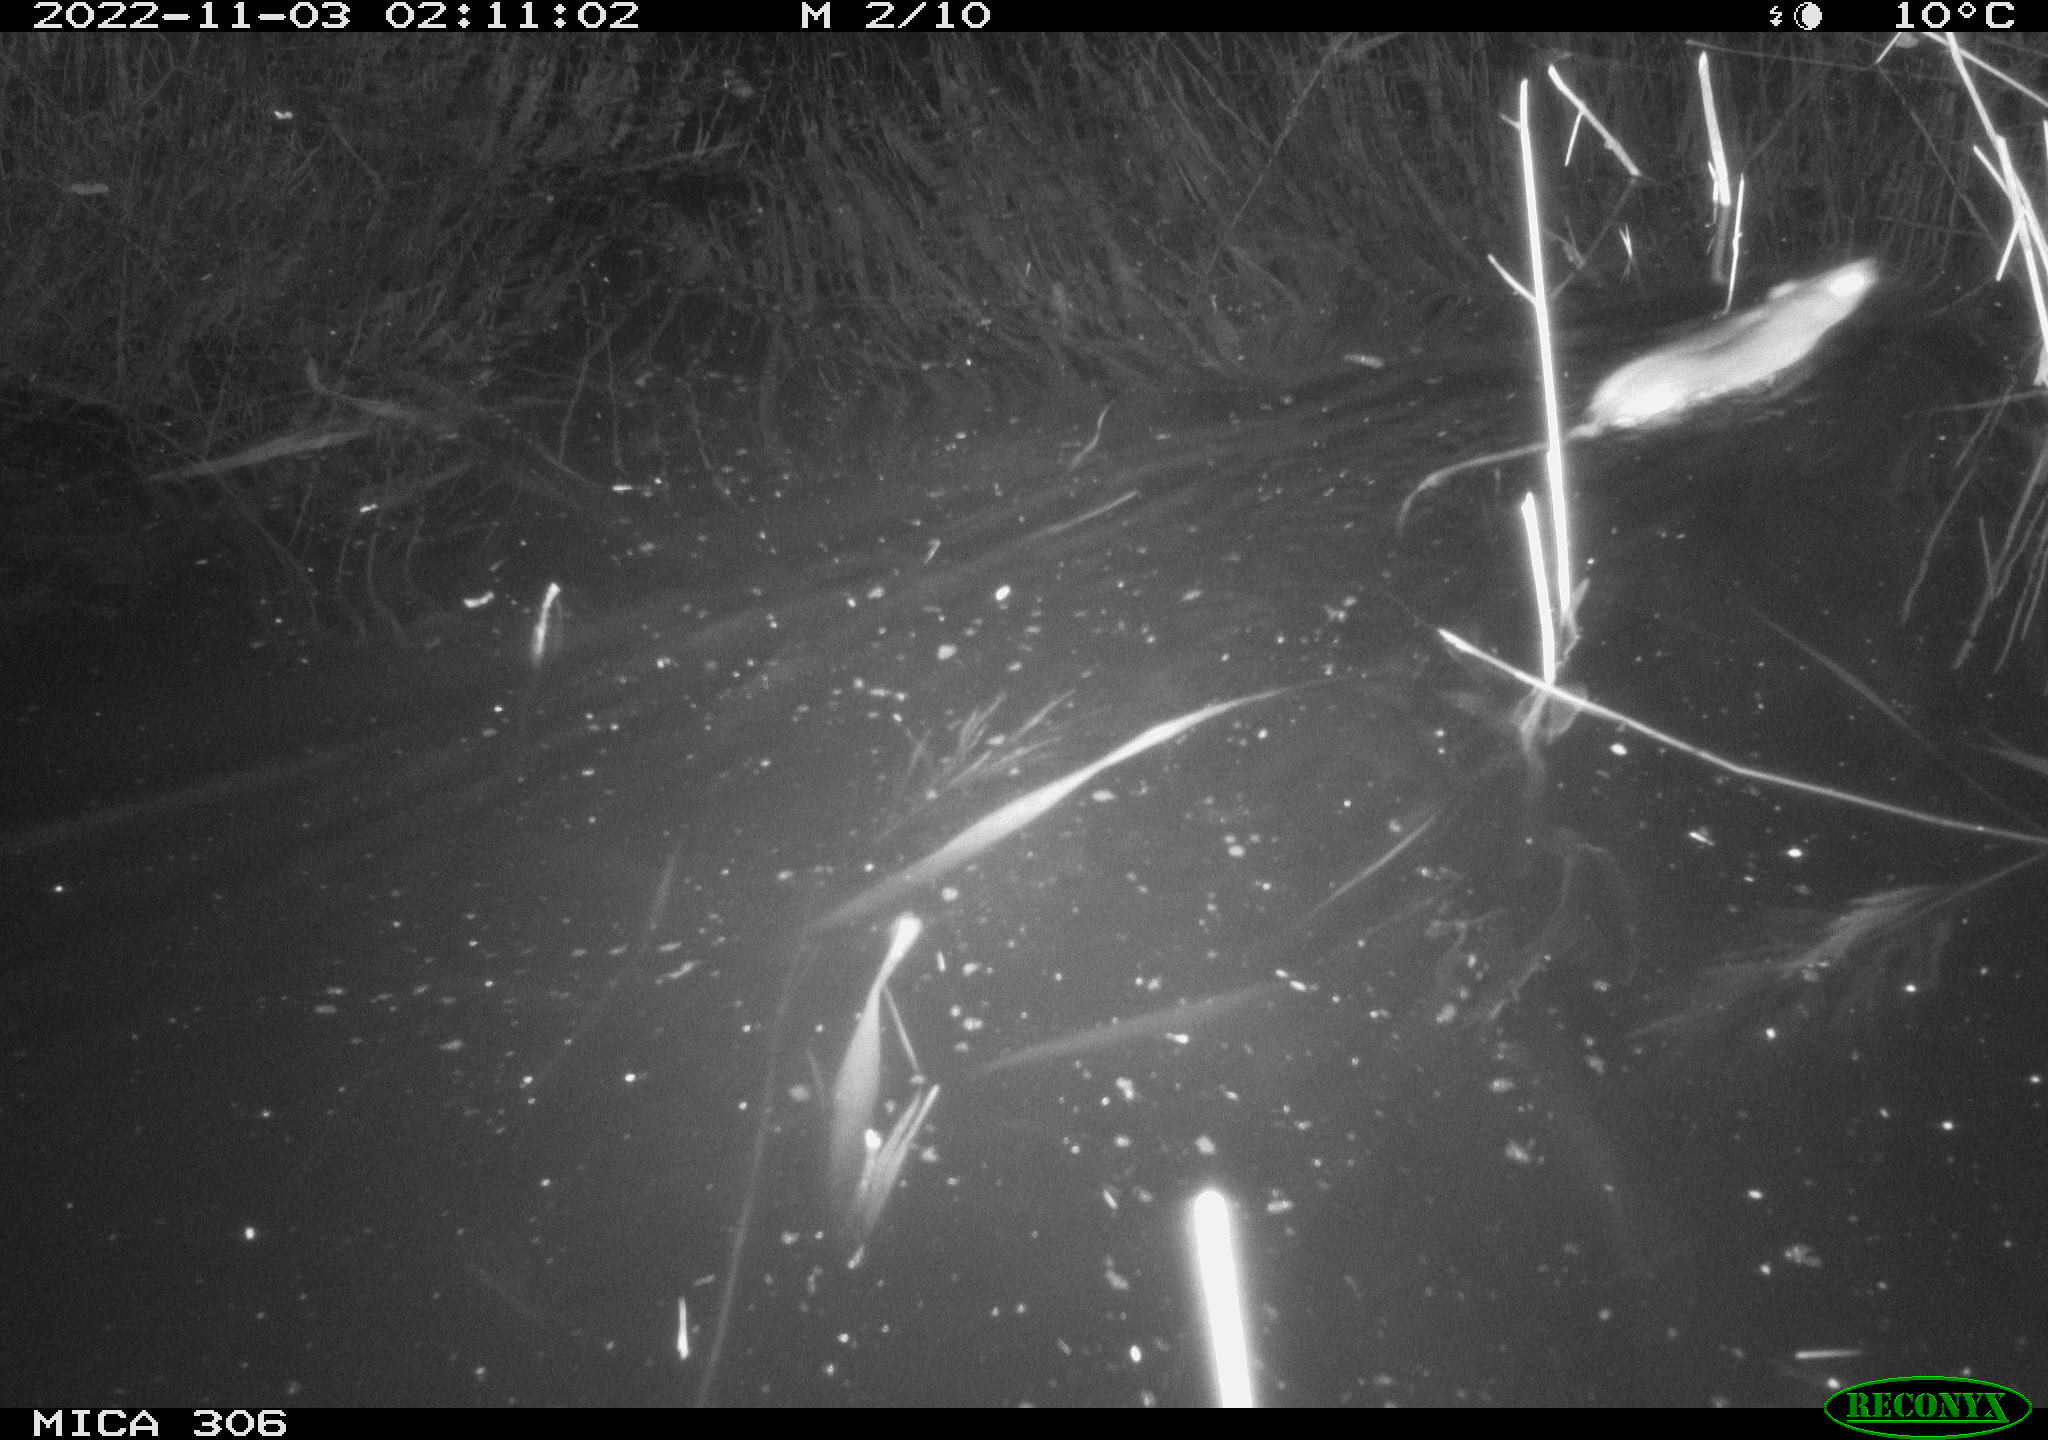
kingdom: Animalia
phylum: Chordata
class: Mammalia
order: Rodentia
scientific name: Rodentia
